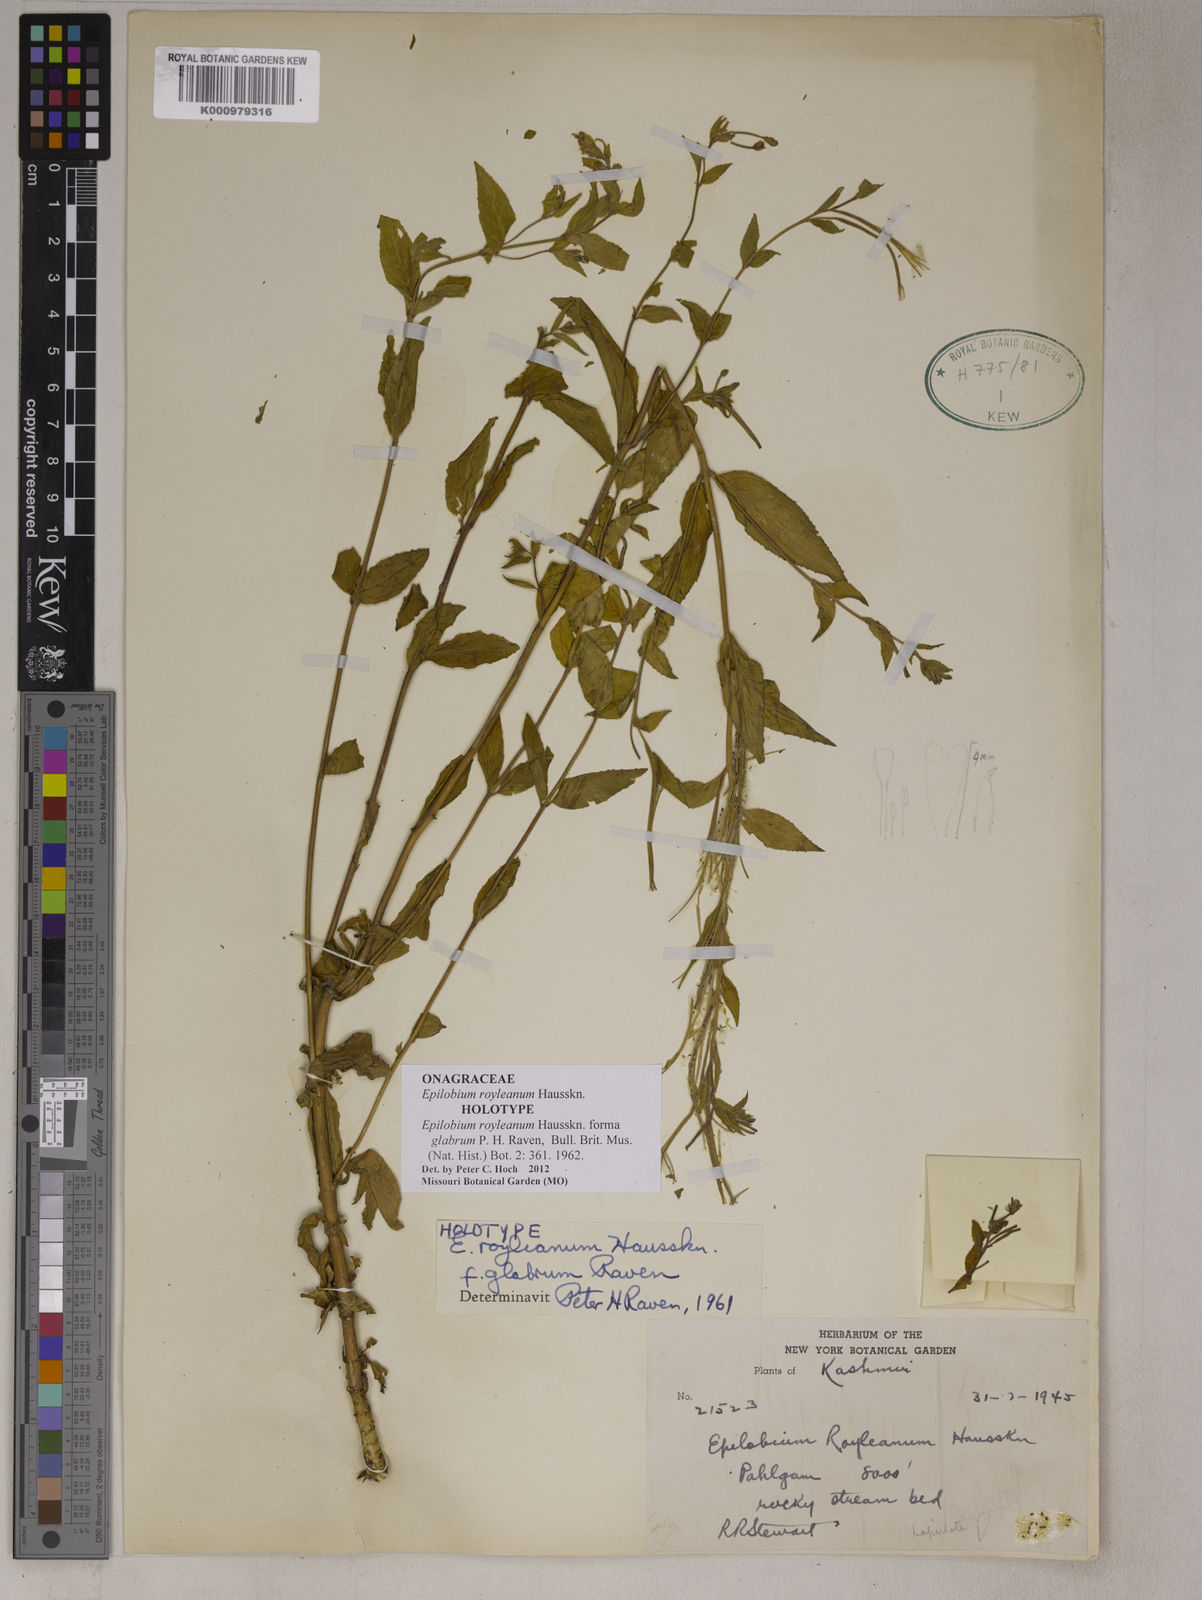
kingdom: Plantae
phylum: Tracheophyta
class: Magnoliopsida
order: Myrtales
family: Onagraceae
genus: Epilobium
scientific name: Epilobium royleanum
